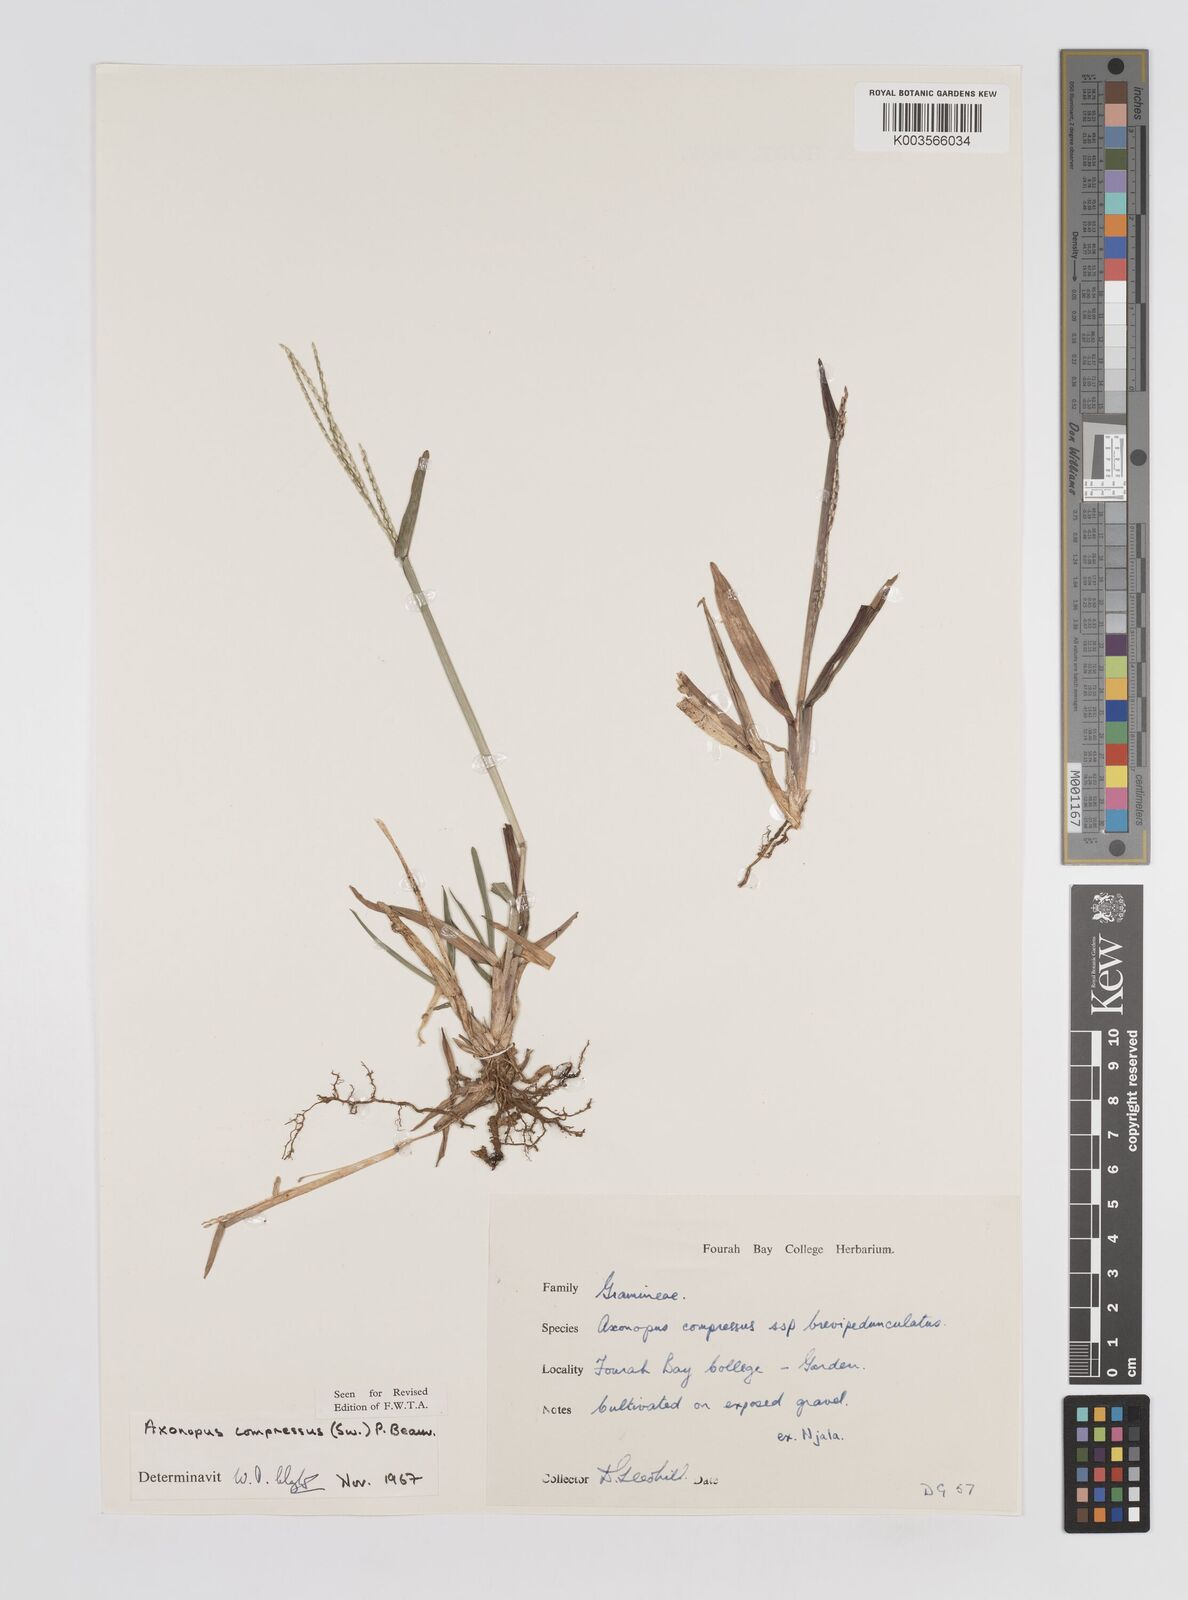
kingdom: Plantae
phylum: Tracheophyta
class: Liliopsida
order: Poales
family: Poaceae
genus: Axonopus
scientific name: Axonopus compressus
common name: American carpet grass
